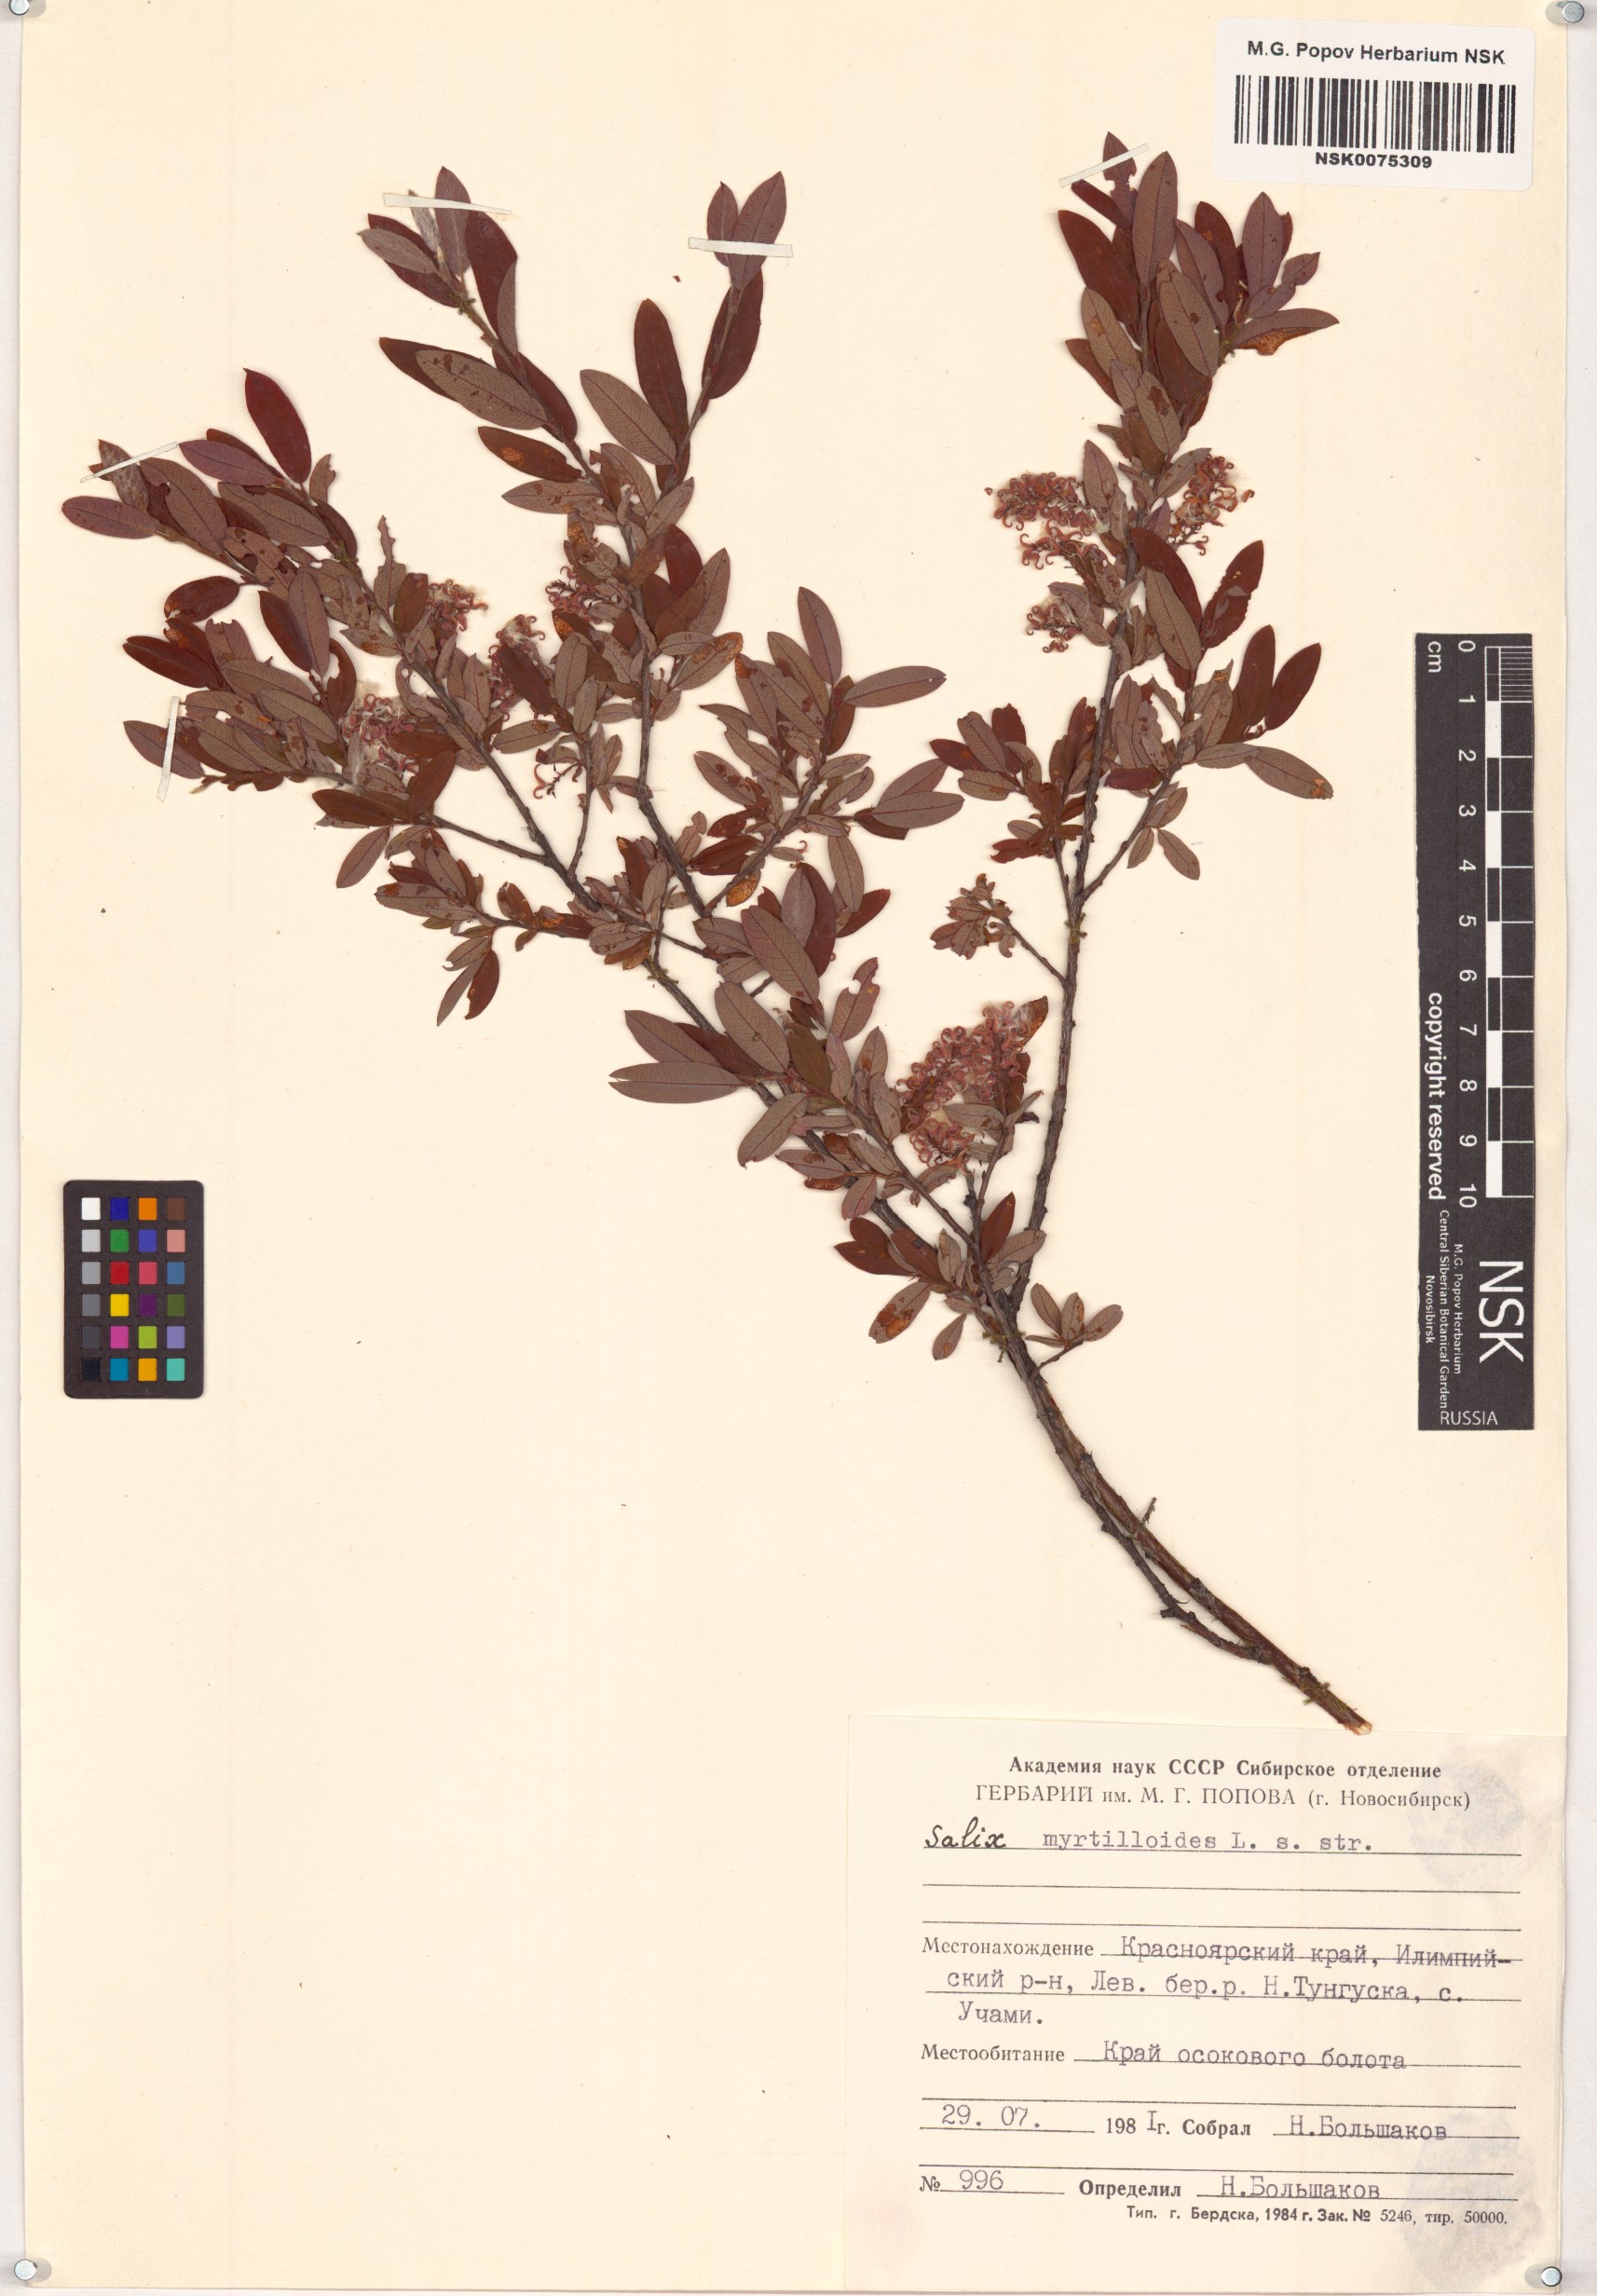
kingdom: Plantae
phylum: Tracheophyta
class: Magnoliopsida
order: Malpighiales
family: Salicaceae
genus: Salix
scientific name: Salix myrtilloides
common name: Myrtle-leaved willow
